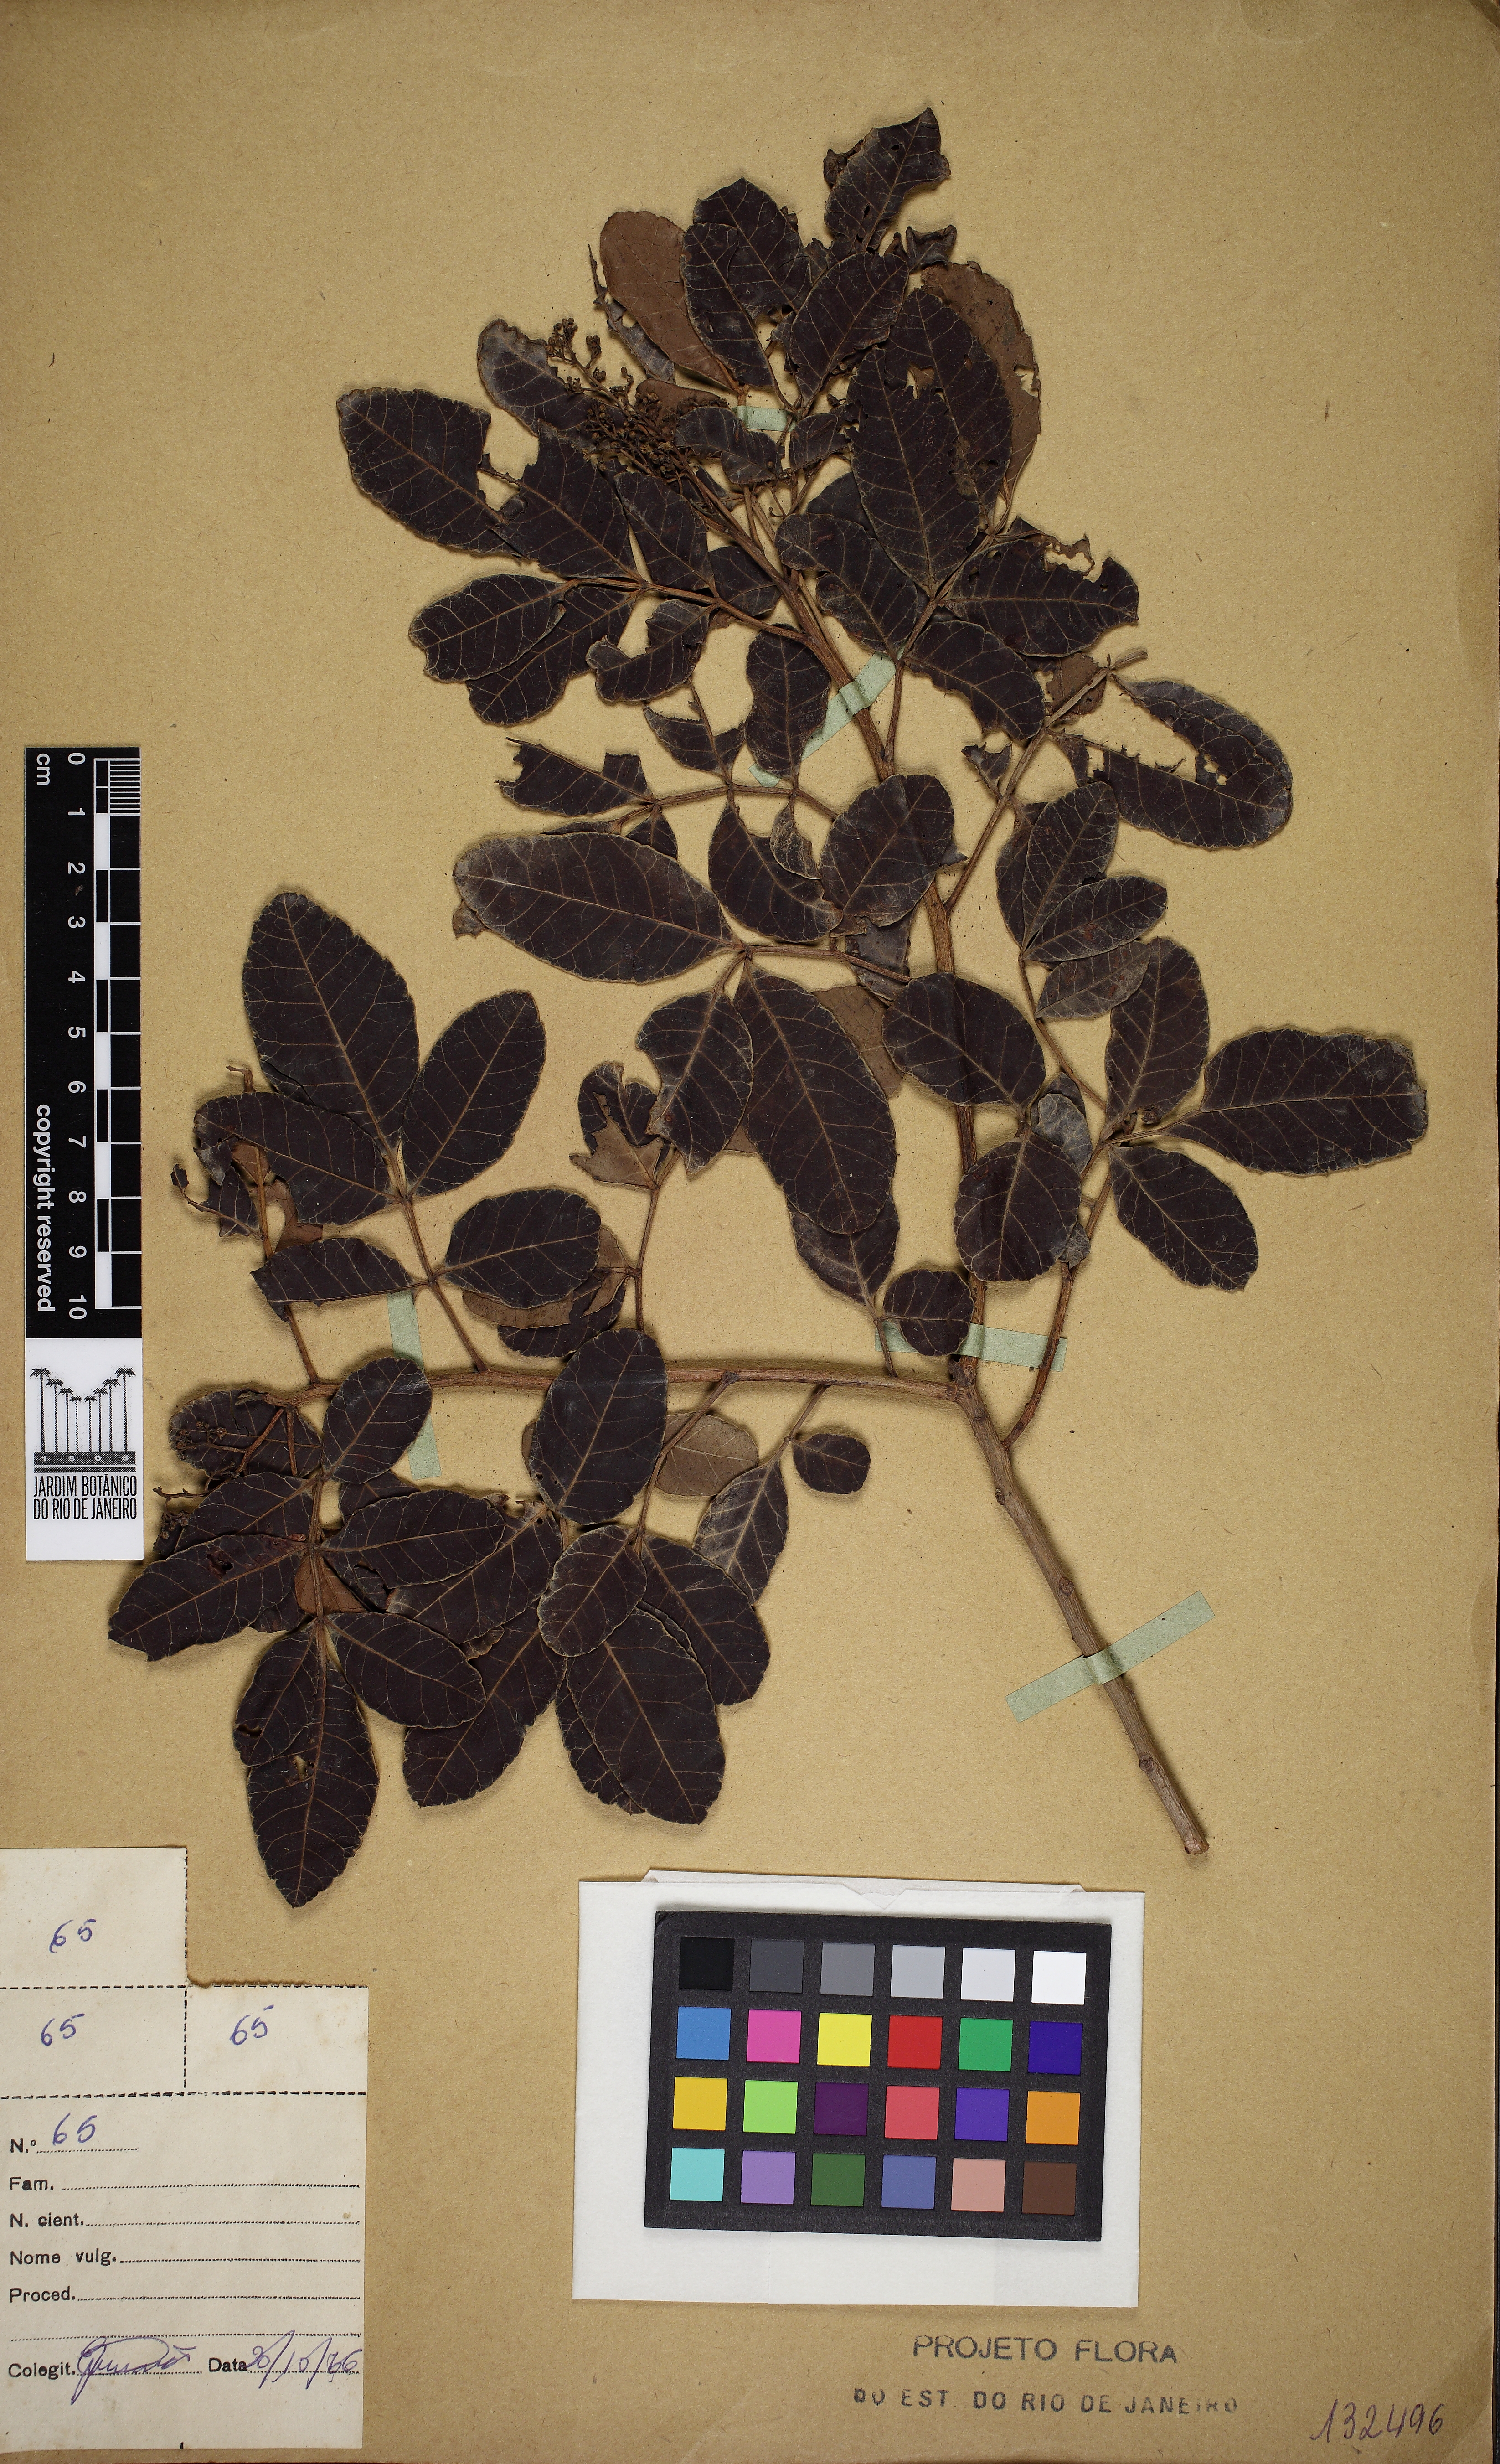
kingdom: Plantae
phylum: Tracheophyta
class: Magnoliopsida
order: Sapindales
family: Anacardiaceae
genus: Schinus
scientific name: Schinus terebinthifolia
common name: Brazilian peppertree
